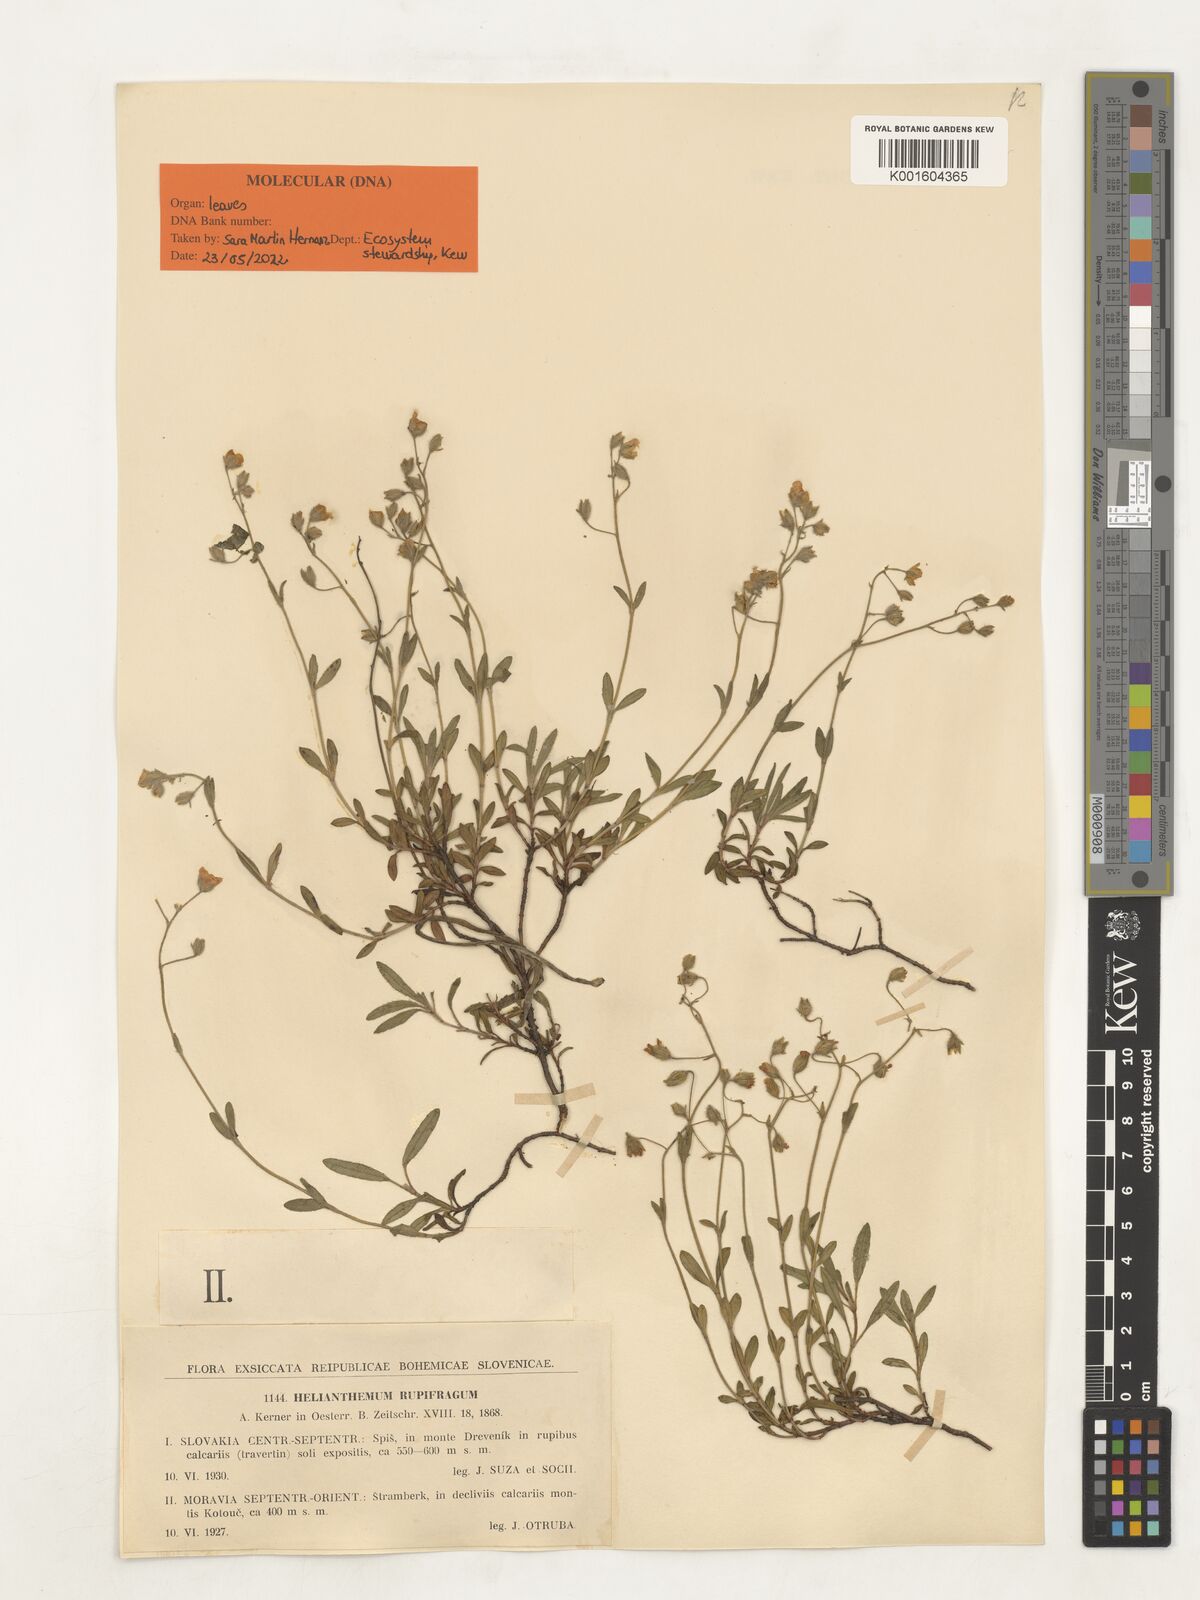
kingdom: Plantae
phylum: Tracheophyta
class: Magnoliopsida
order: Malvales
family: Cistaceae
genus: Helianthemum
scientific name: Helianthemum rupifragum
